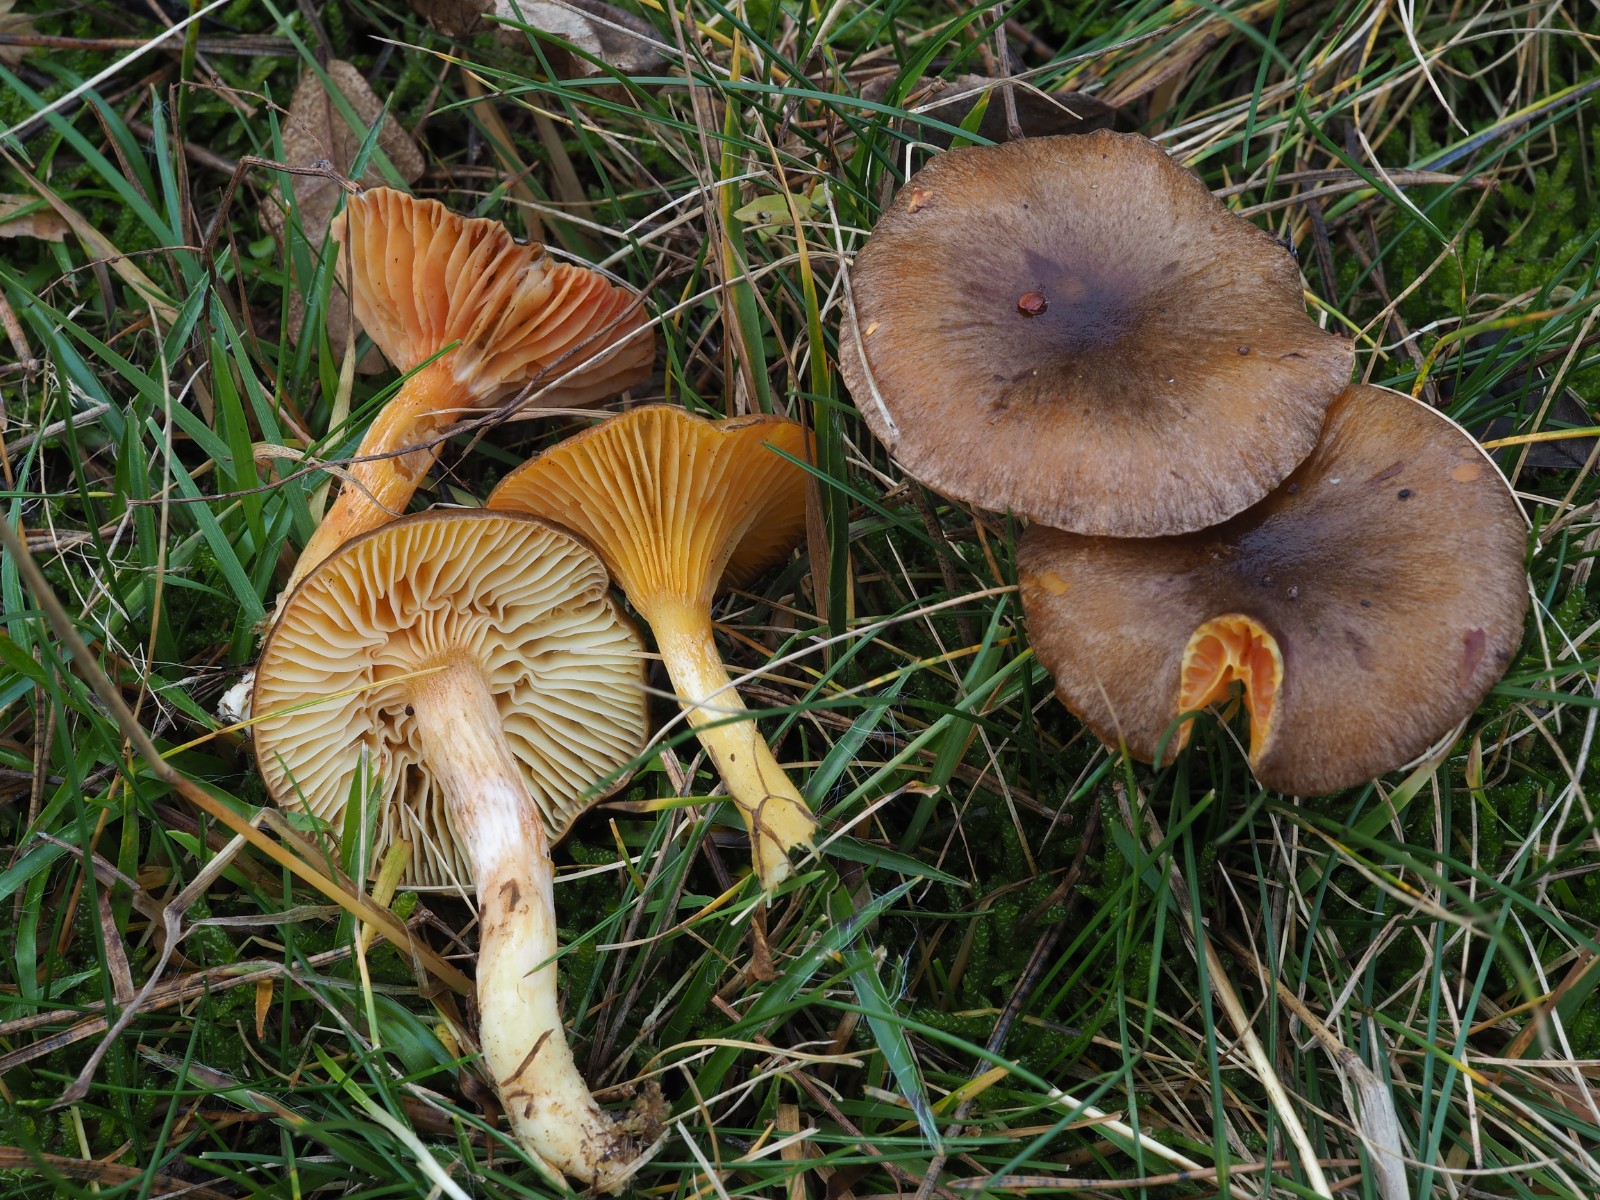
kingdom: Fungi
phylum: Basidiomycota
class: Agaricomycetes
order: Agaricales
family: Hygrophoraceae
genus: Hygrophorus
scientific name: Hygrophorus hypothejus
